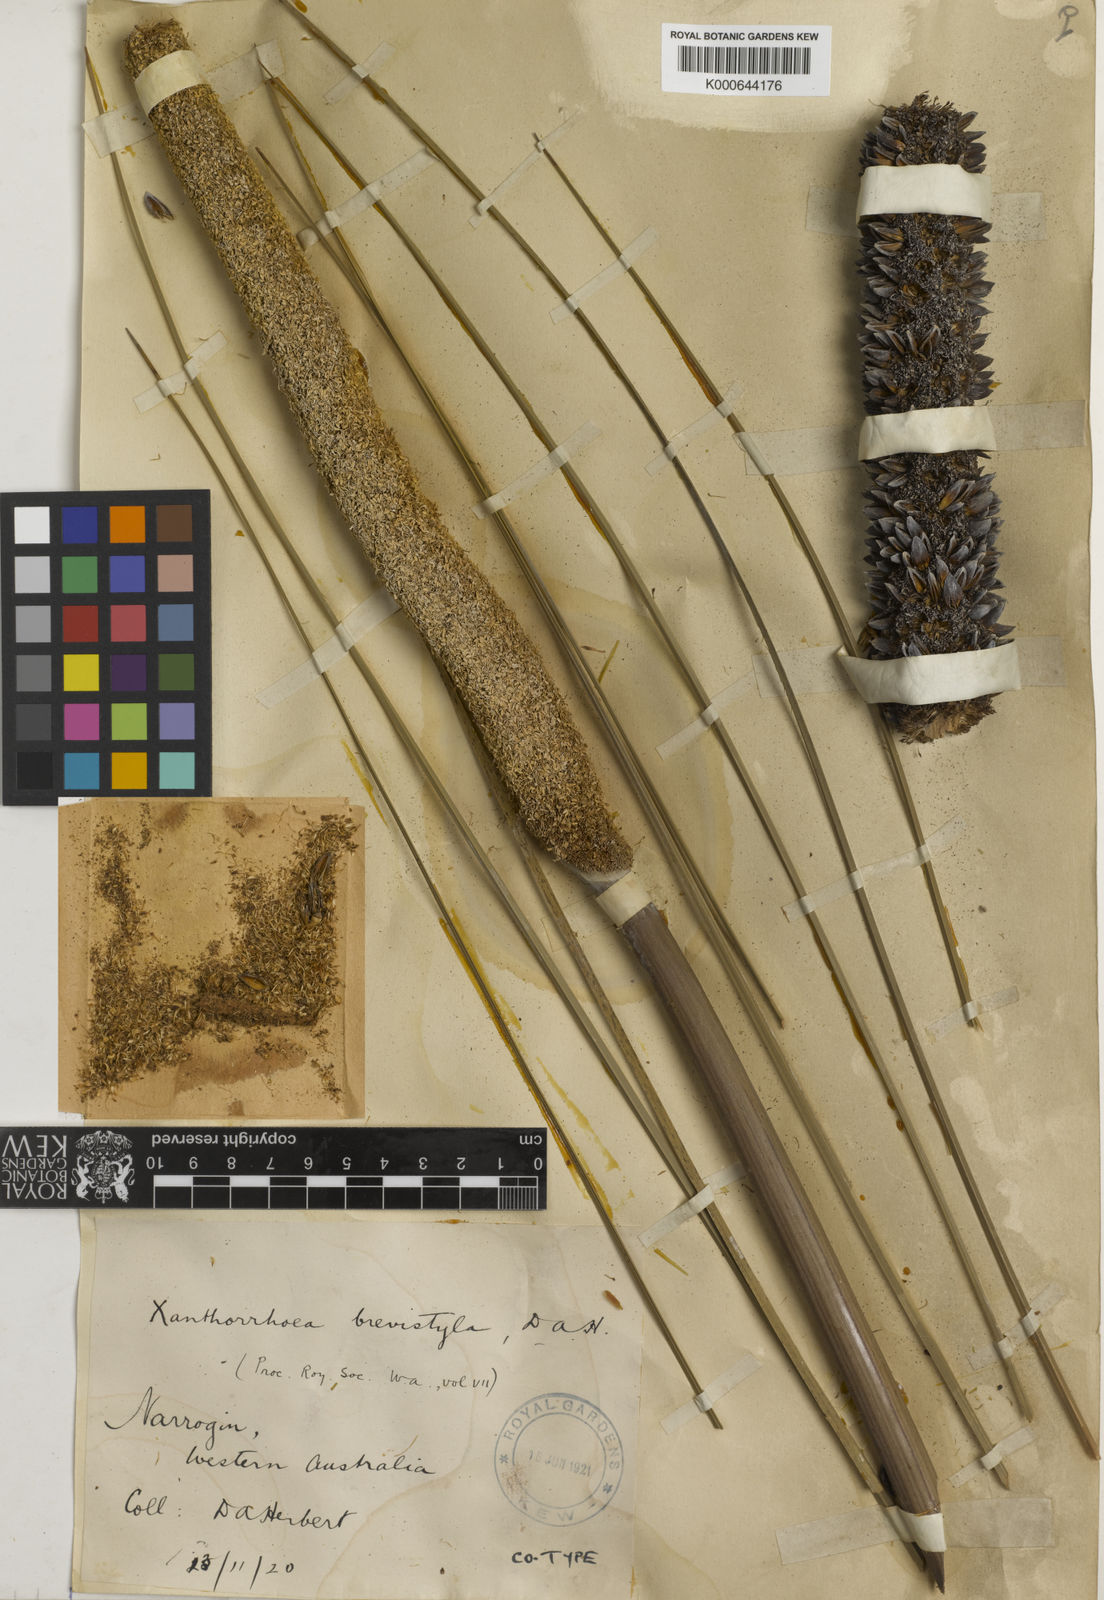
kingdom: Plantae
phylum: Tracheophyta
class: Liliopsida
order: Asparagales
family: Asphodelaceae
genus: Xanthorrhoea
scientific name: Xanthorrhoea brevistyla
